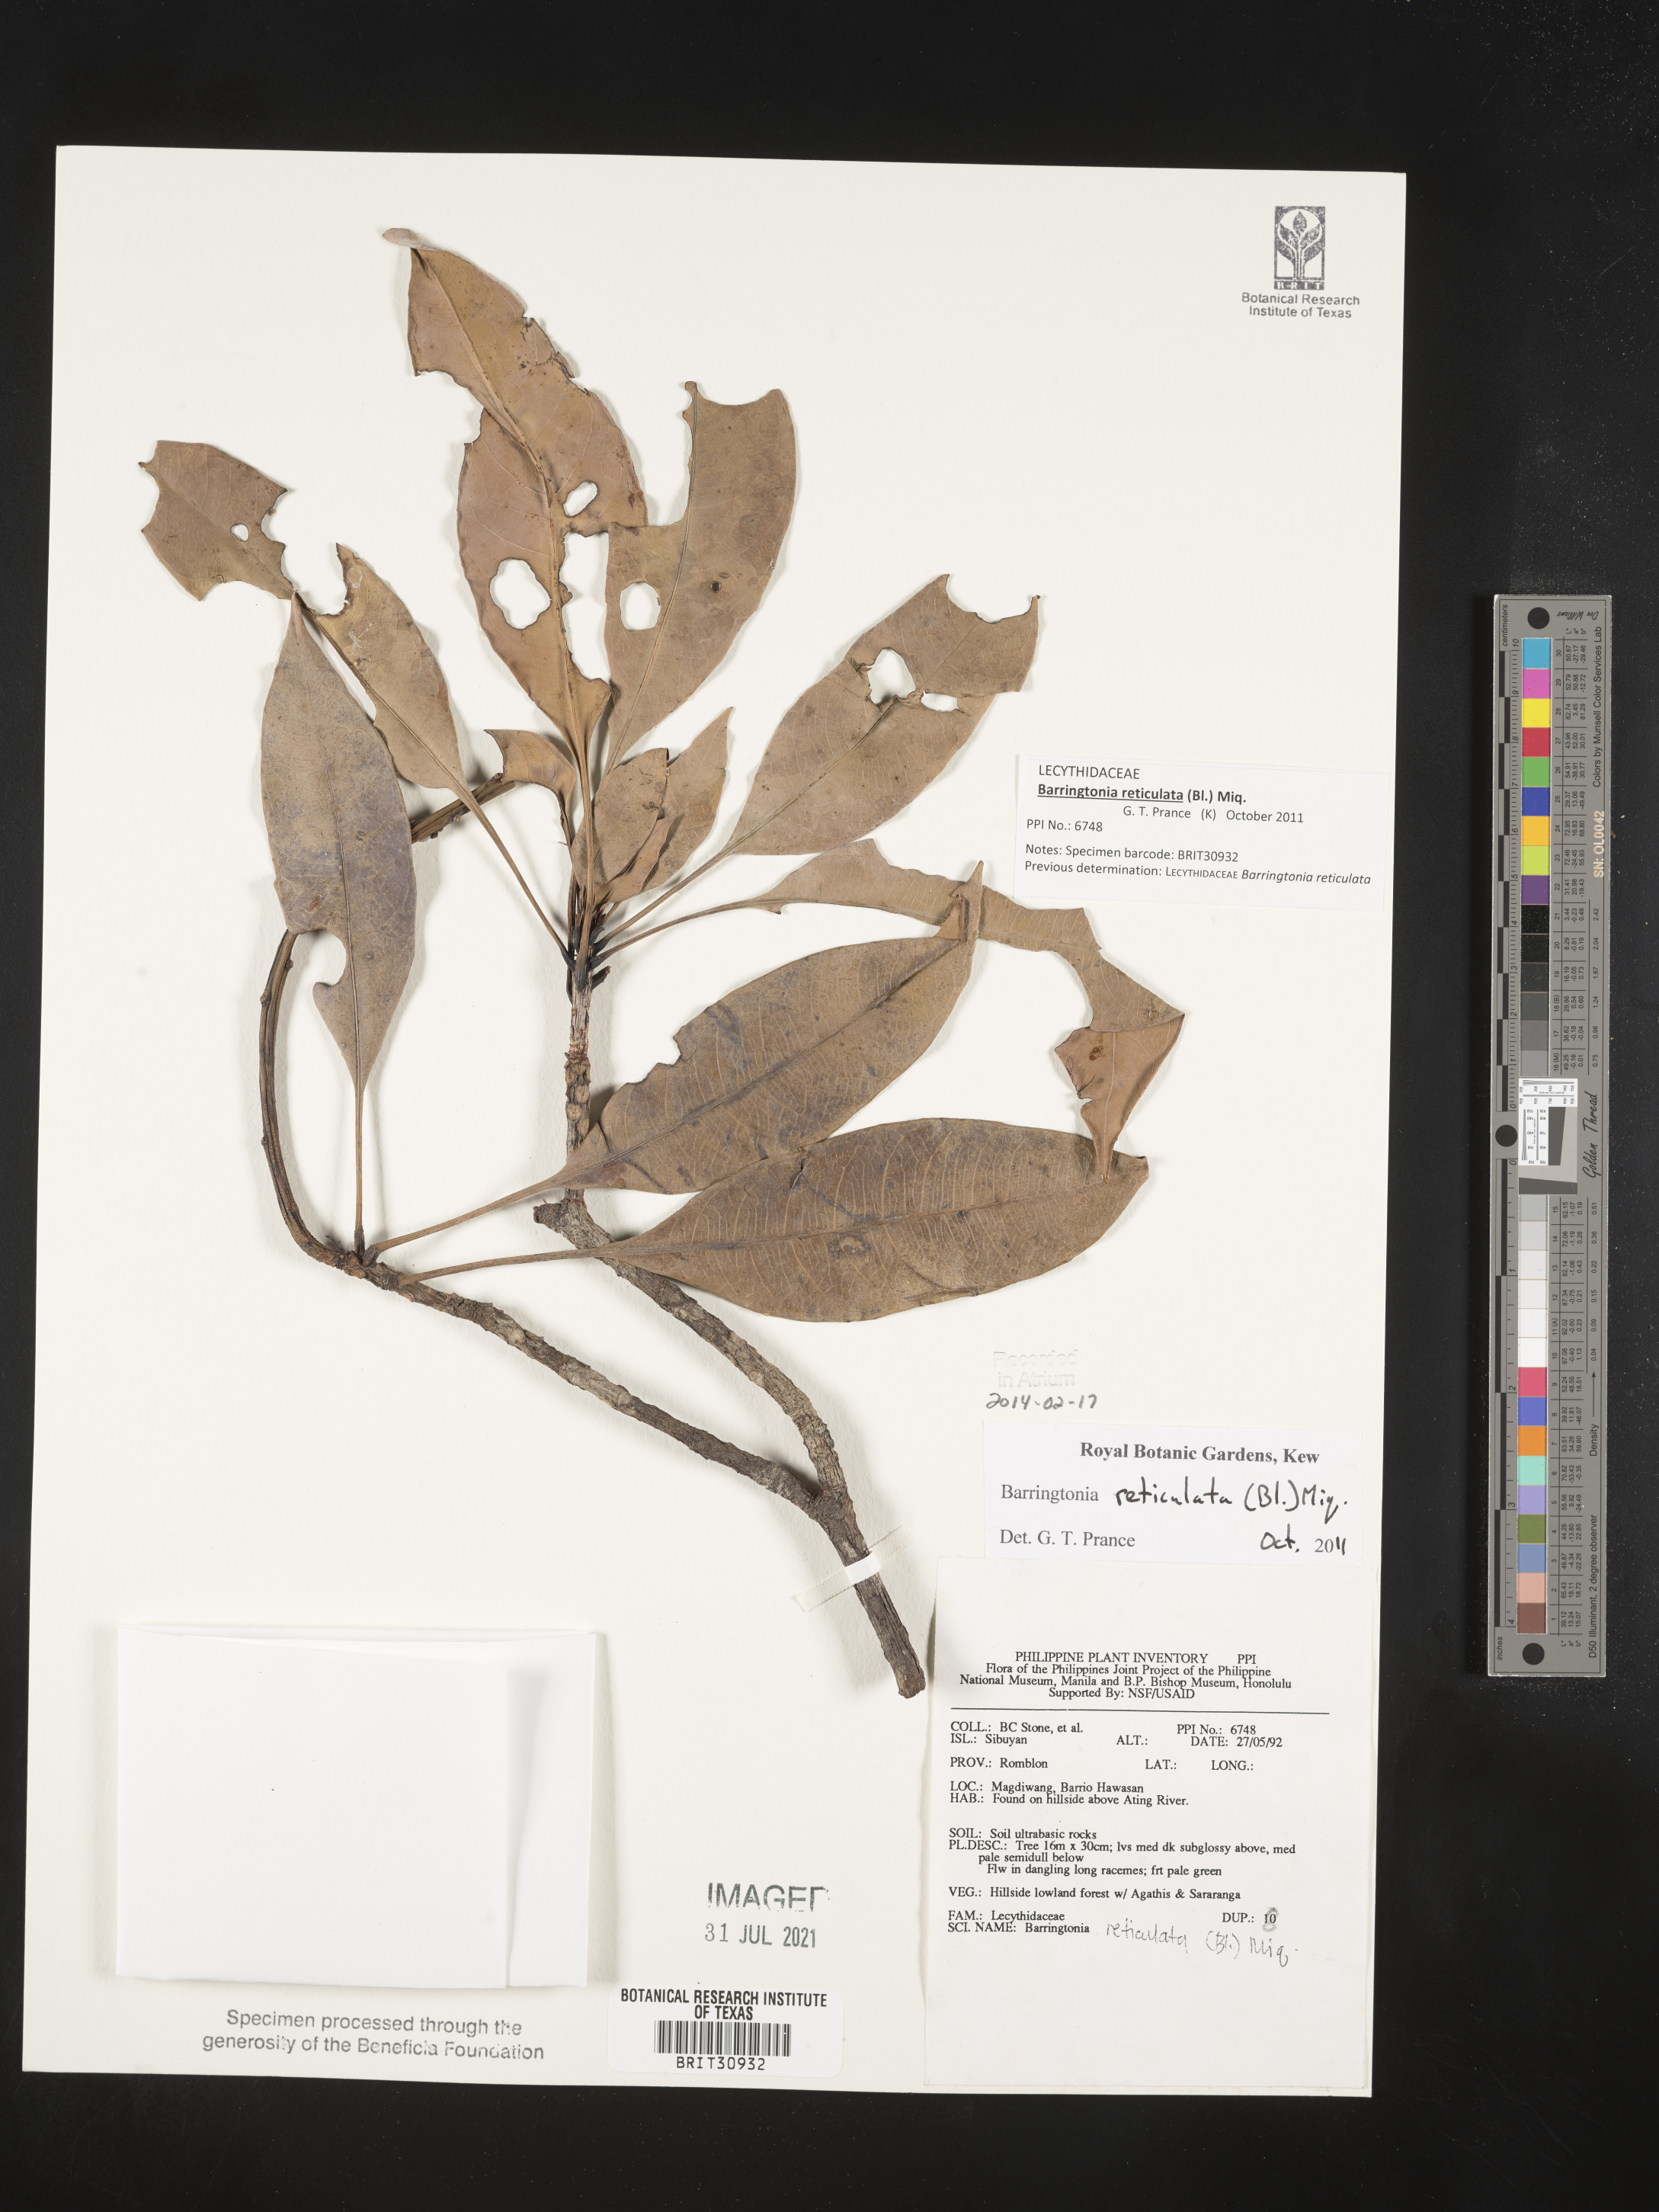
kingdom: Plantae
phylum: Tracheophyta
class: Magnoliopsida
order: Ericales
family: Lecythidaceae
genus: Barringtonia
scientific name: Barringtonia reticulata
